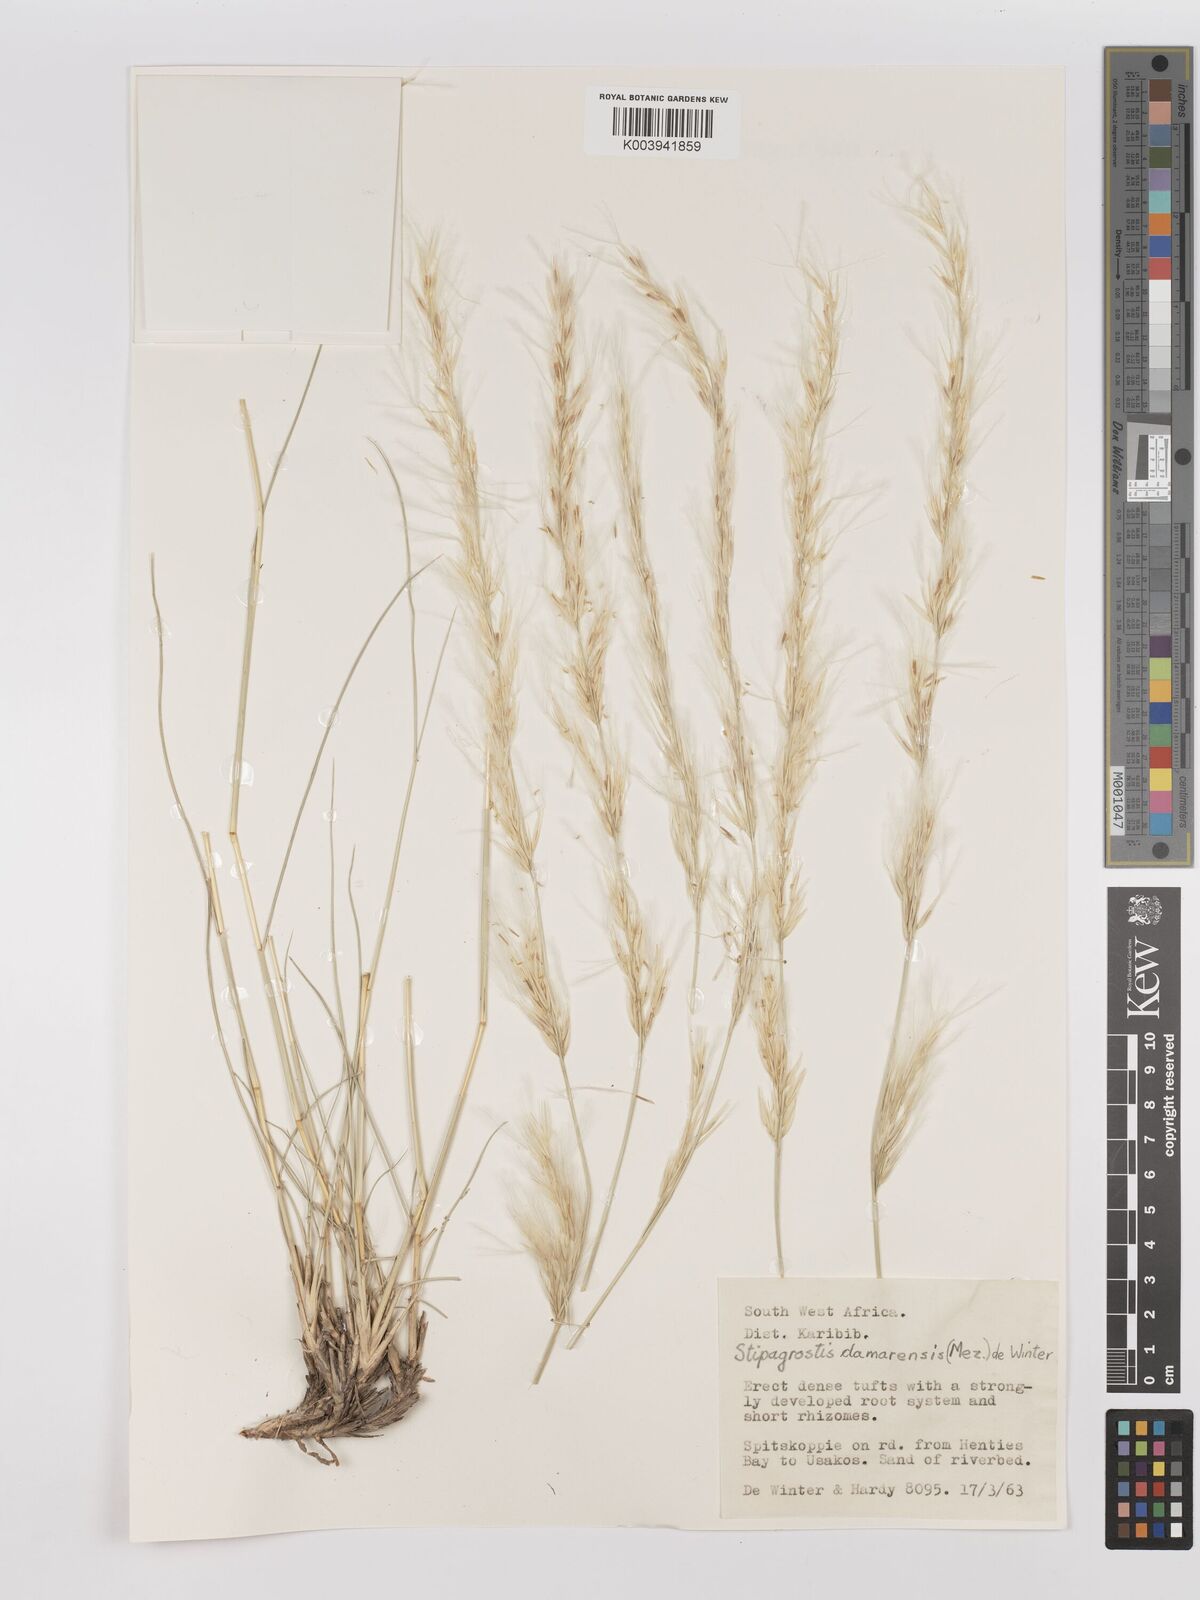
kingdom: Plantae
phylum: Tracheophyta
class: Liliopsida
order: Poales
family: Poaceae
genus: Stipagrostis
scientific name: Stipagrostis damarensis
